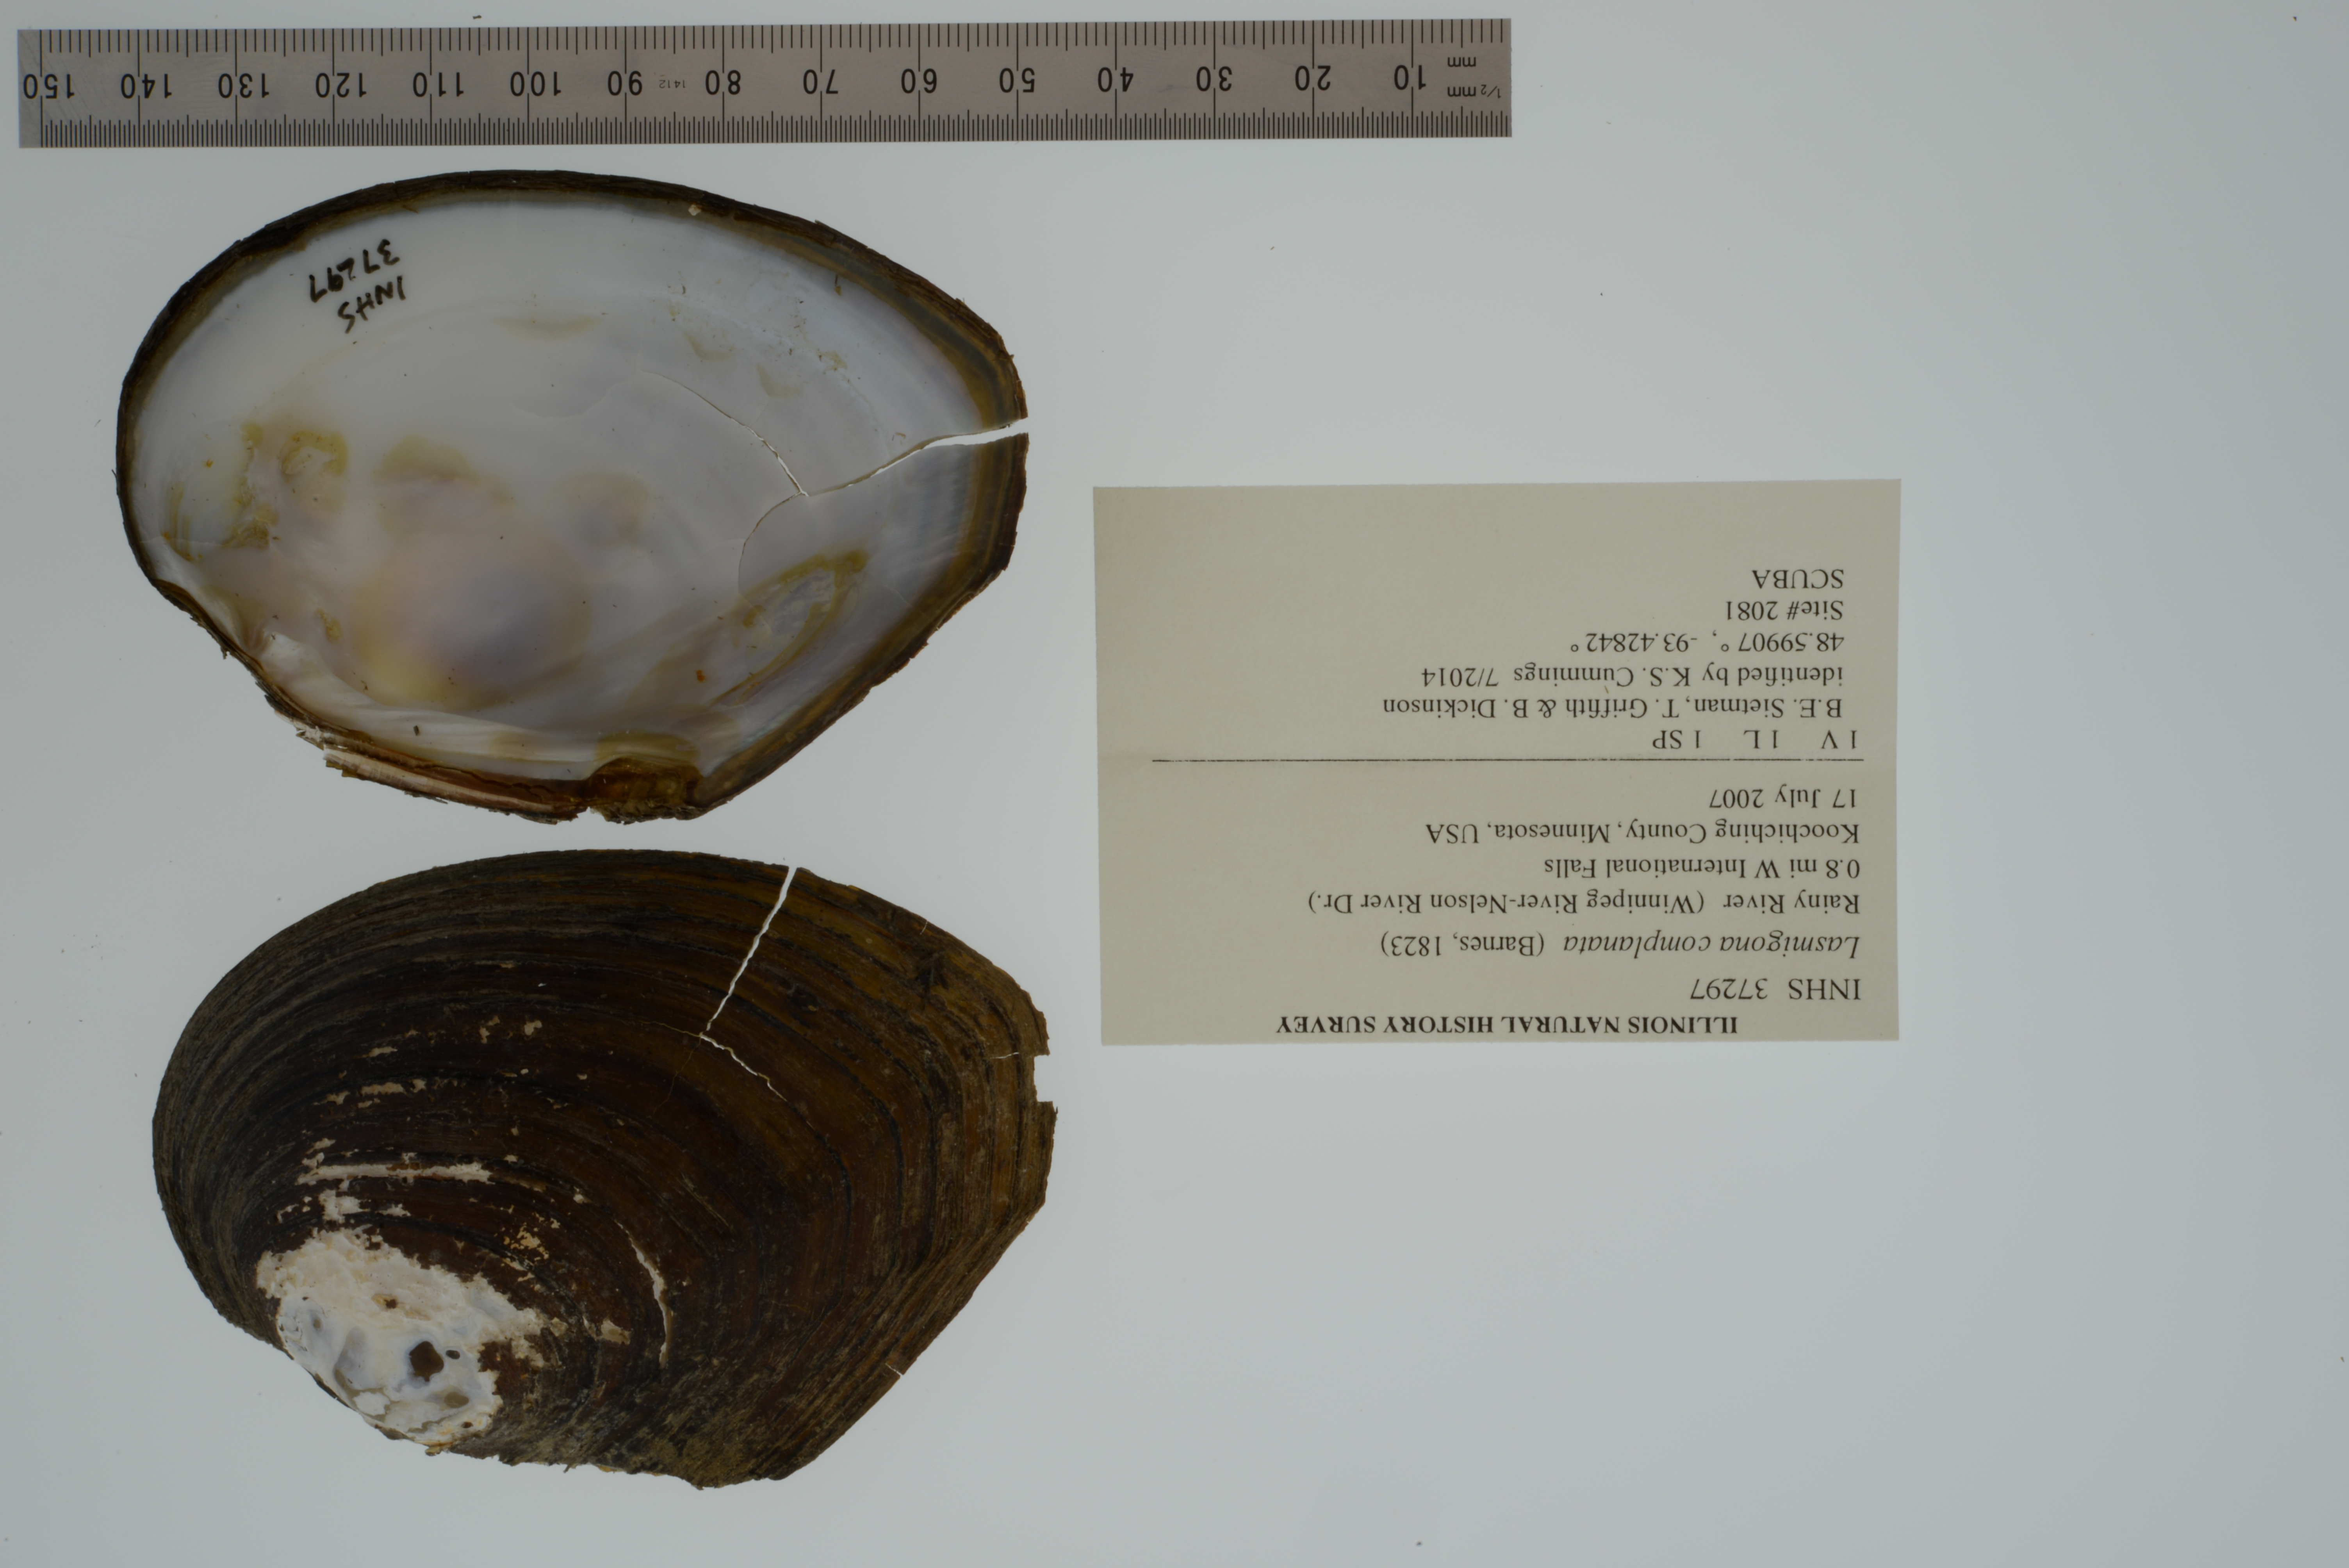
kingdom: Animalia
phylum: Mollusca
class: Bivalvia
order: Unionida
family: Unionidae
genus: Lasmigona
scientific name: Lasmigona complanata
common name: White heelsplitter
